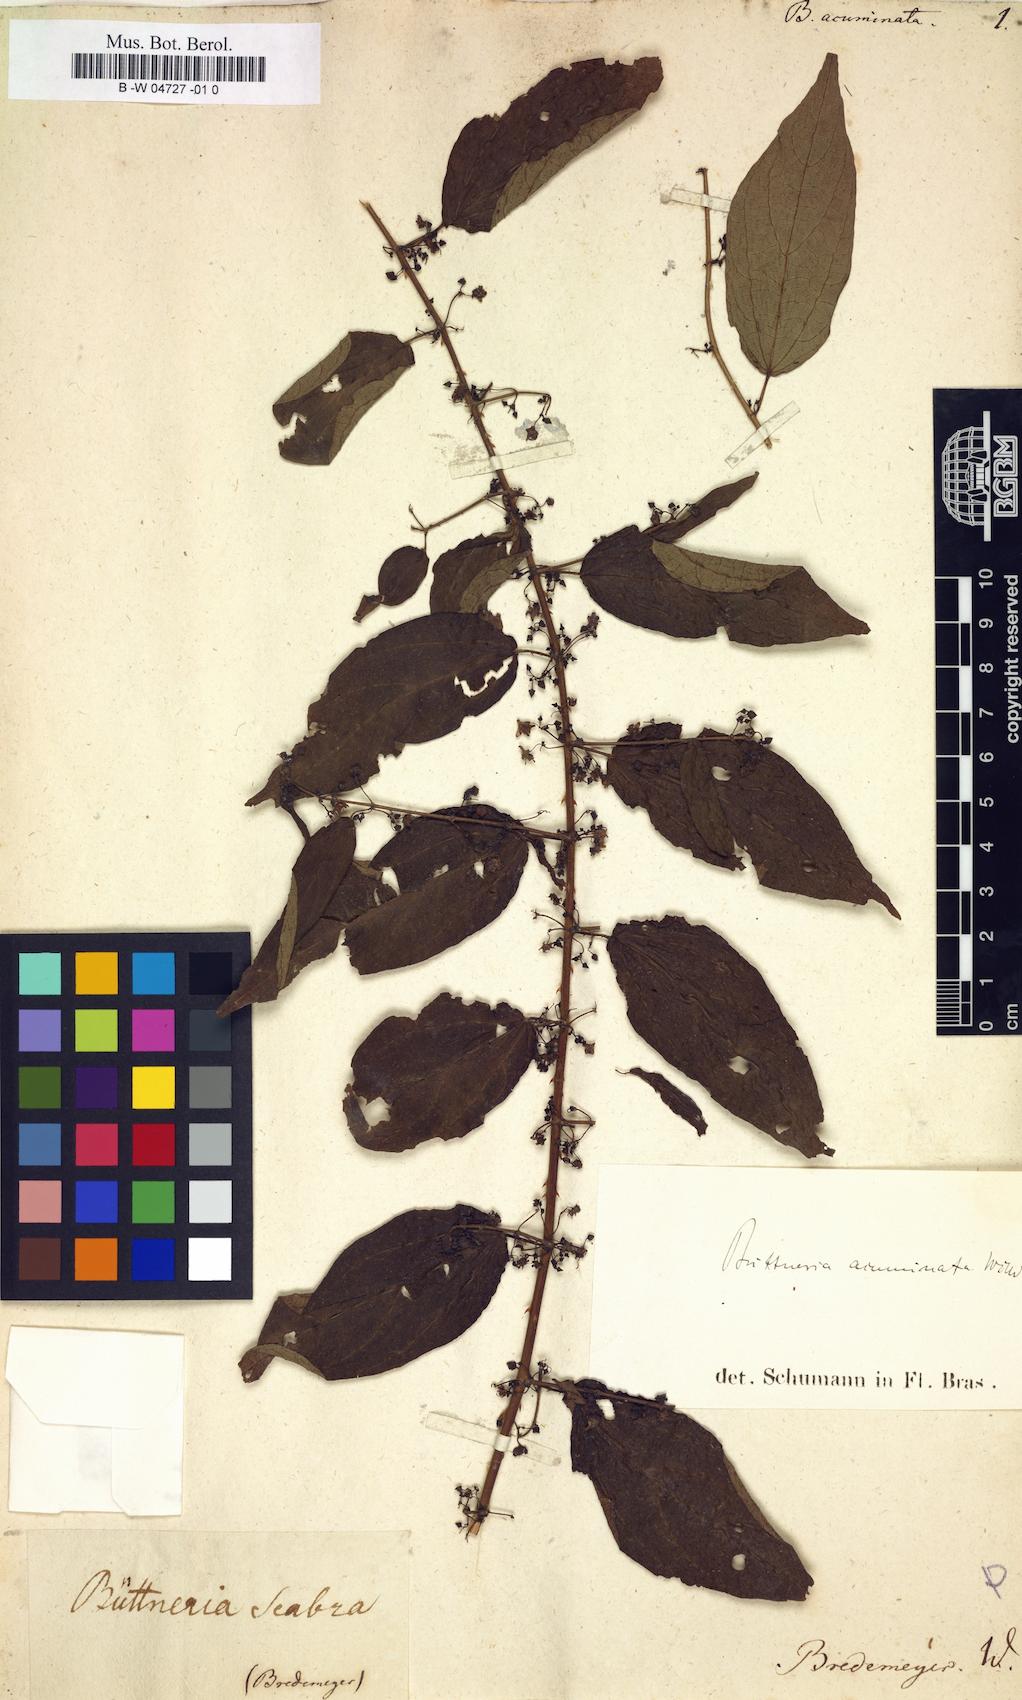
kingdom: Plantae
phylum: Tracheophyta
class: Magnoliopsida
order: Malvales
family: Malvaceae
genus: Byttneria
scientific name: Byttneria aculeata
